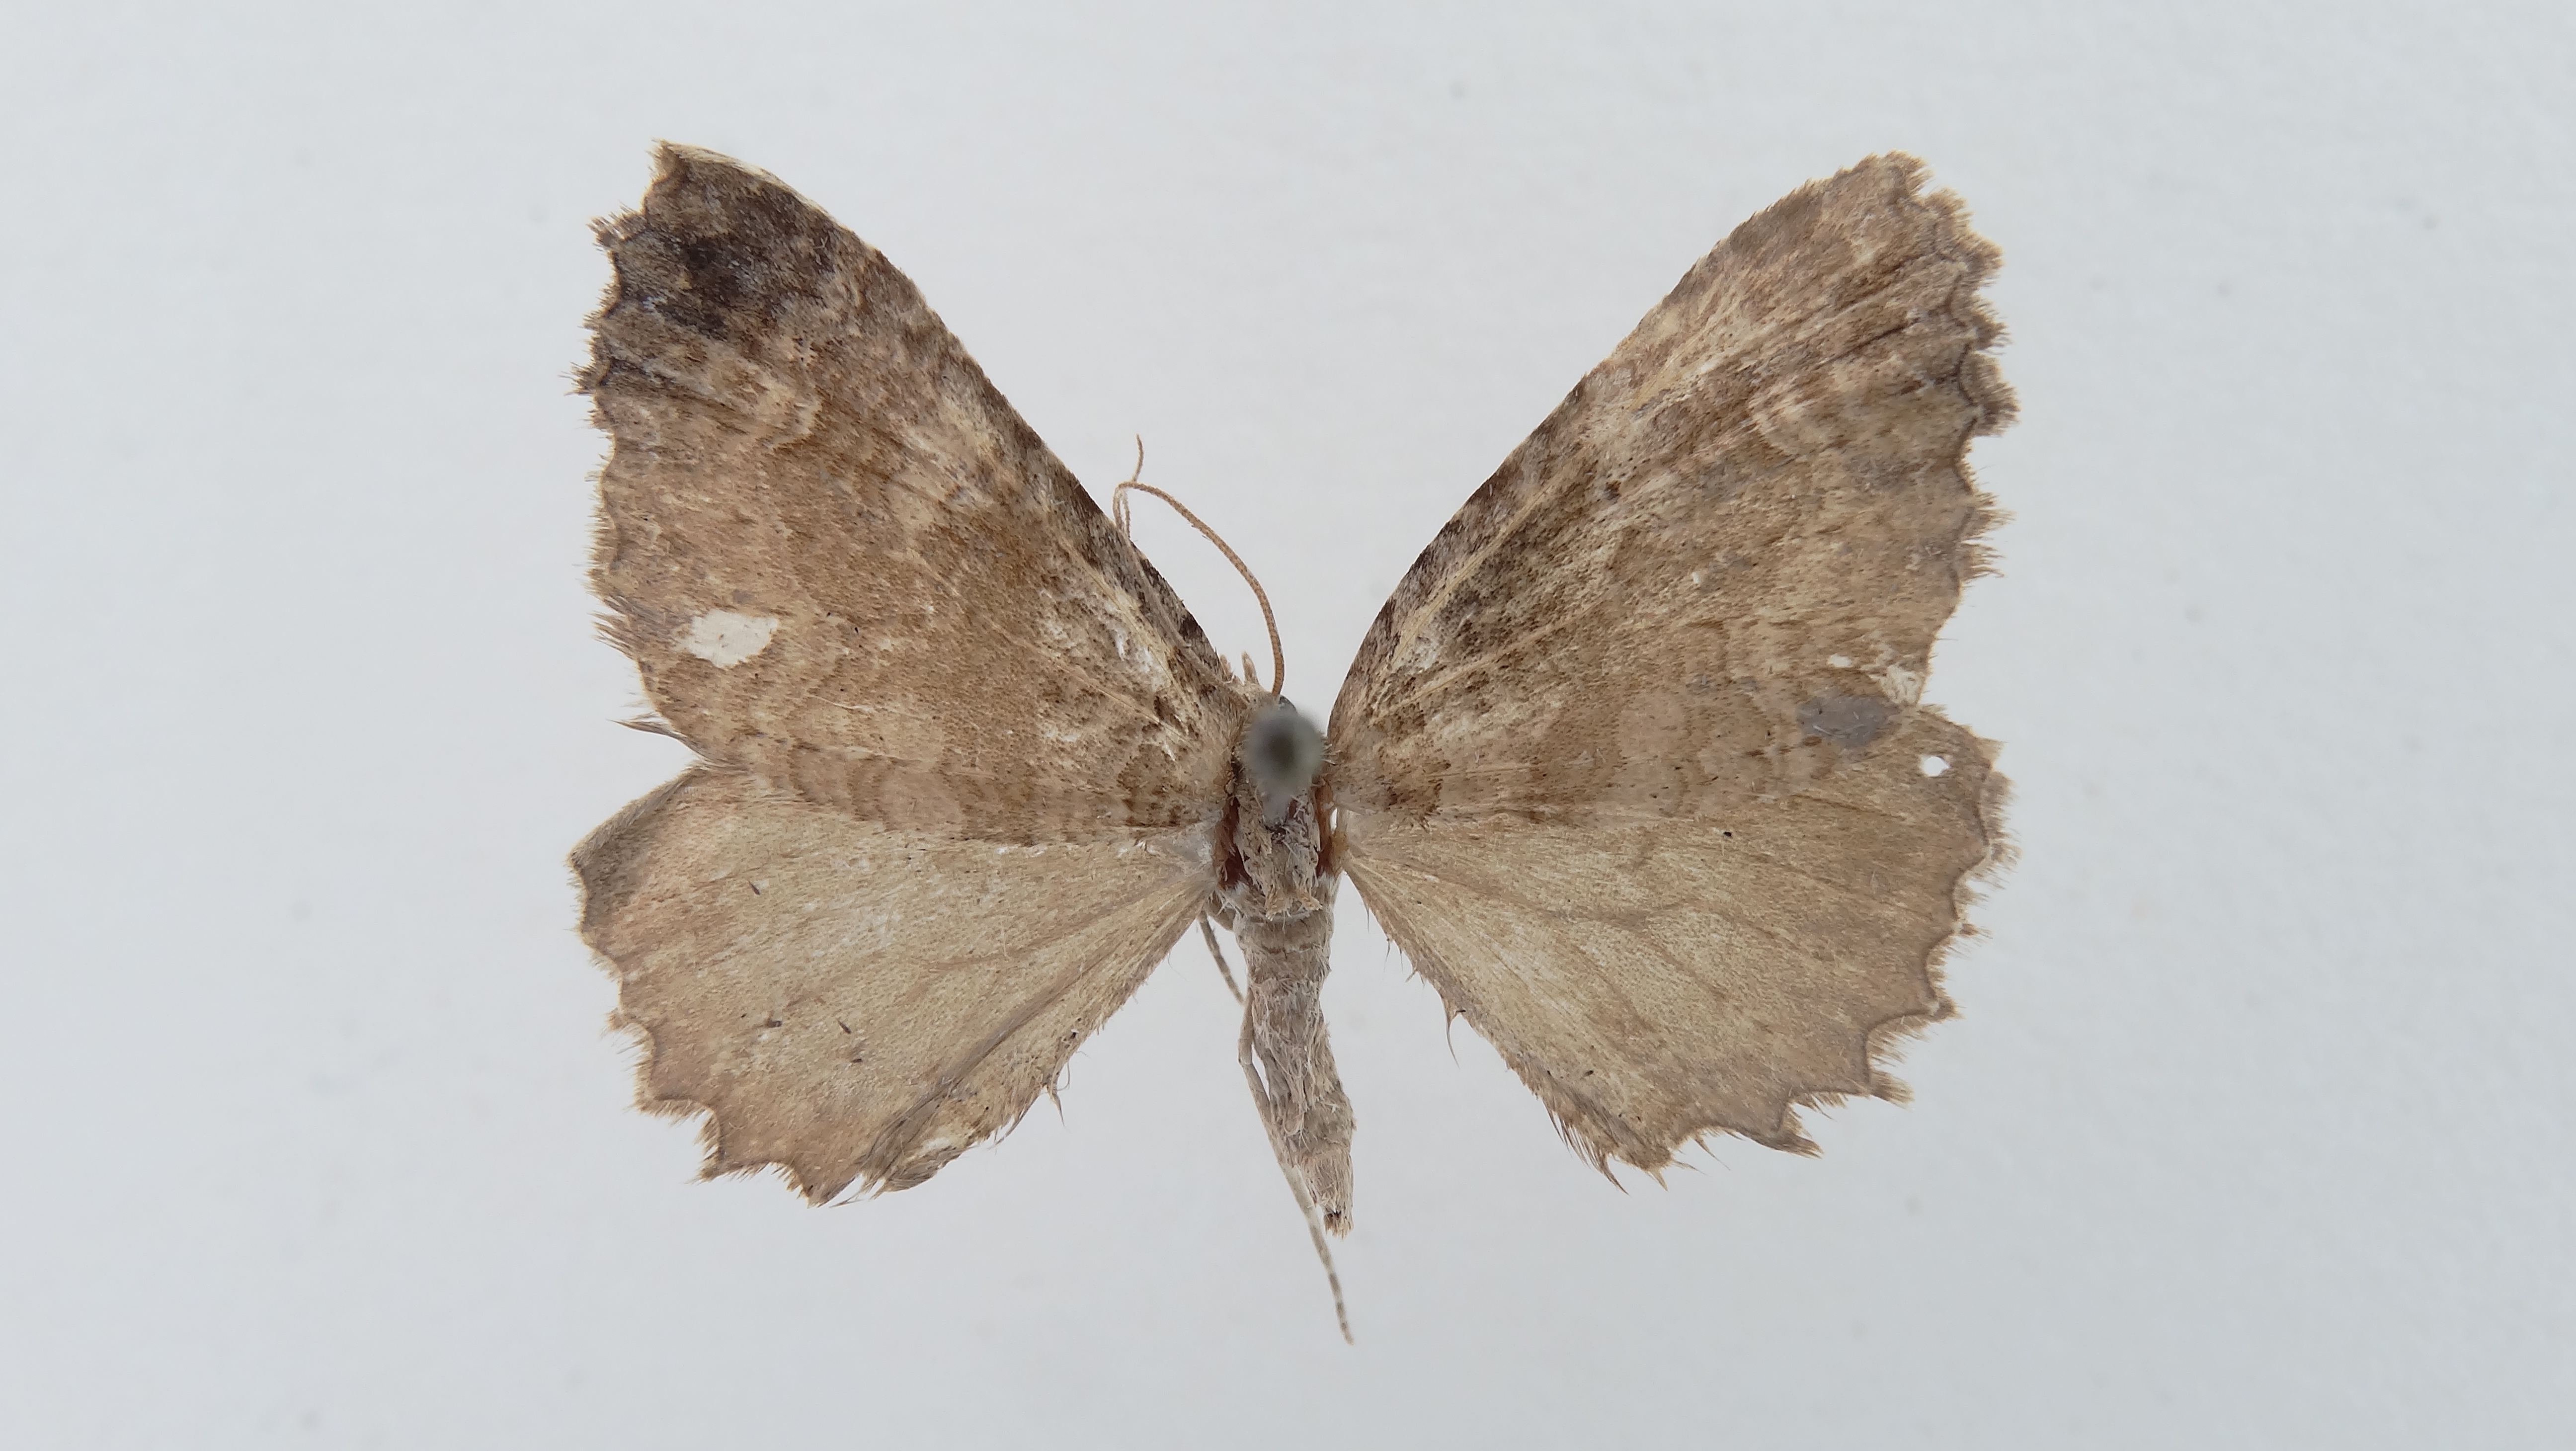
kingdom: Animalia
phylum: Arthropoda
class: Insecta
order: Lepidoptera
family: Geometridae
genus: Anticlea
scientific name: Anticlea badiiplaga
